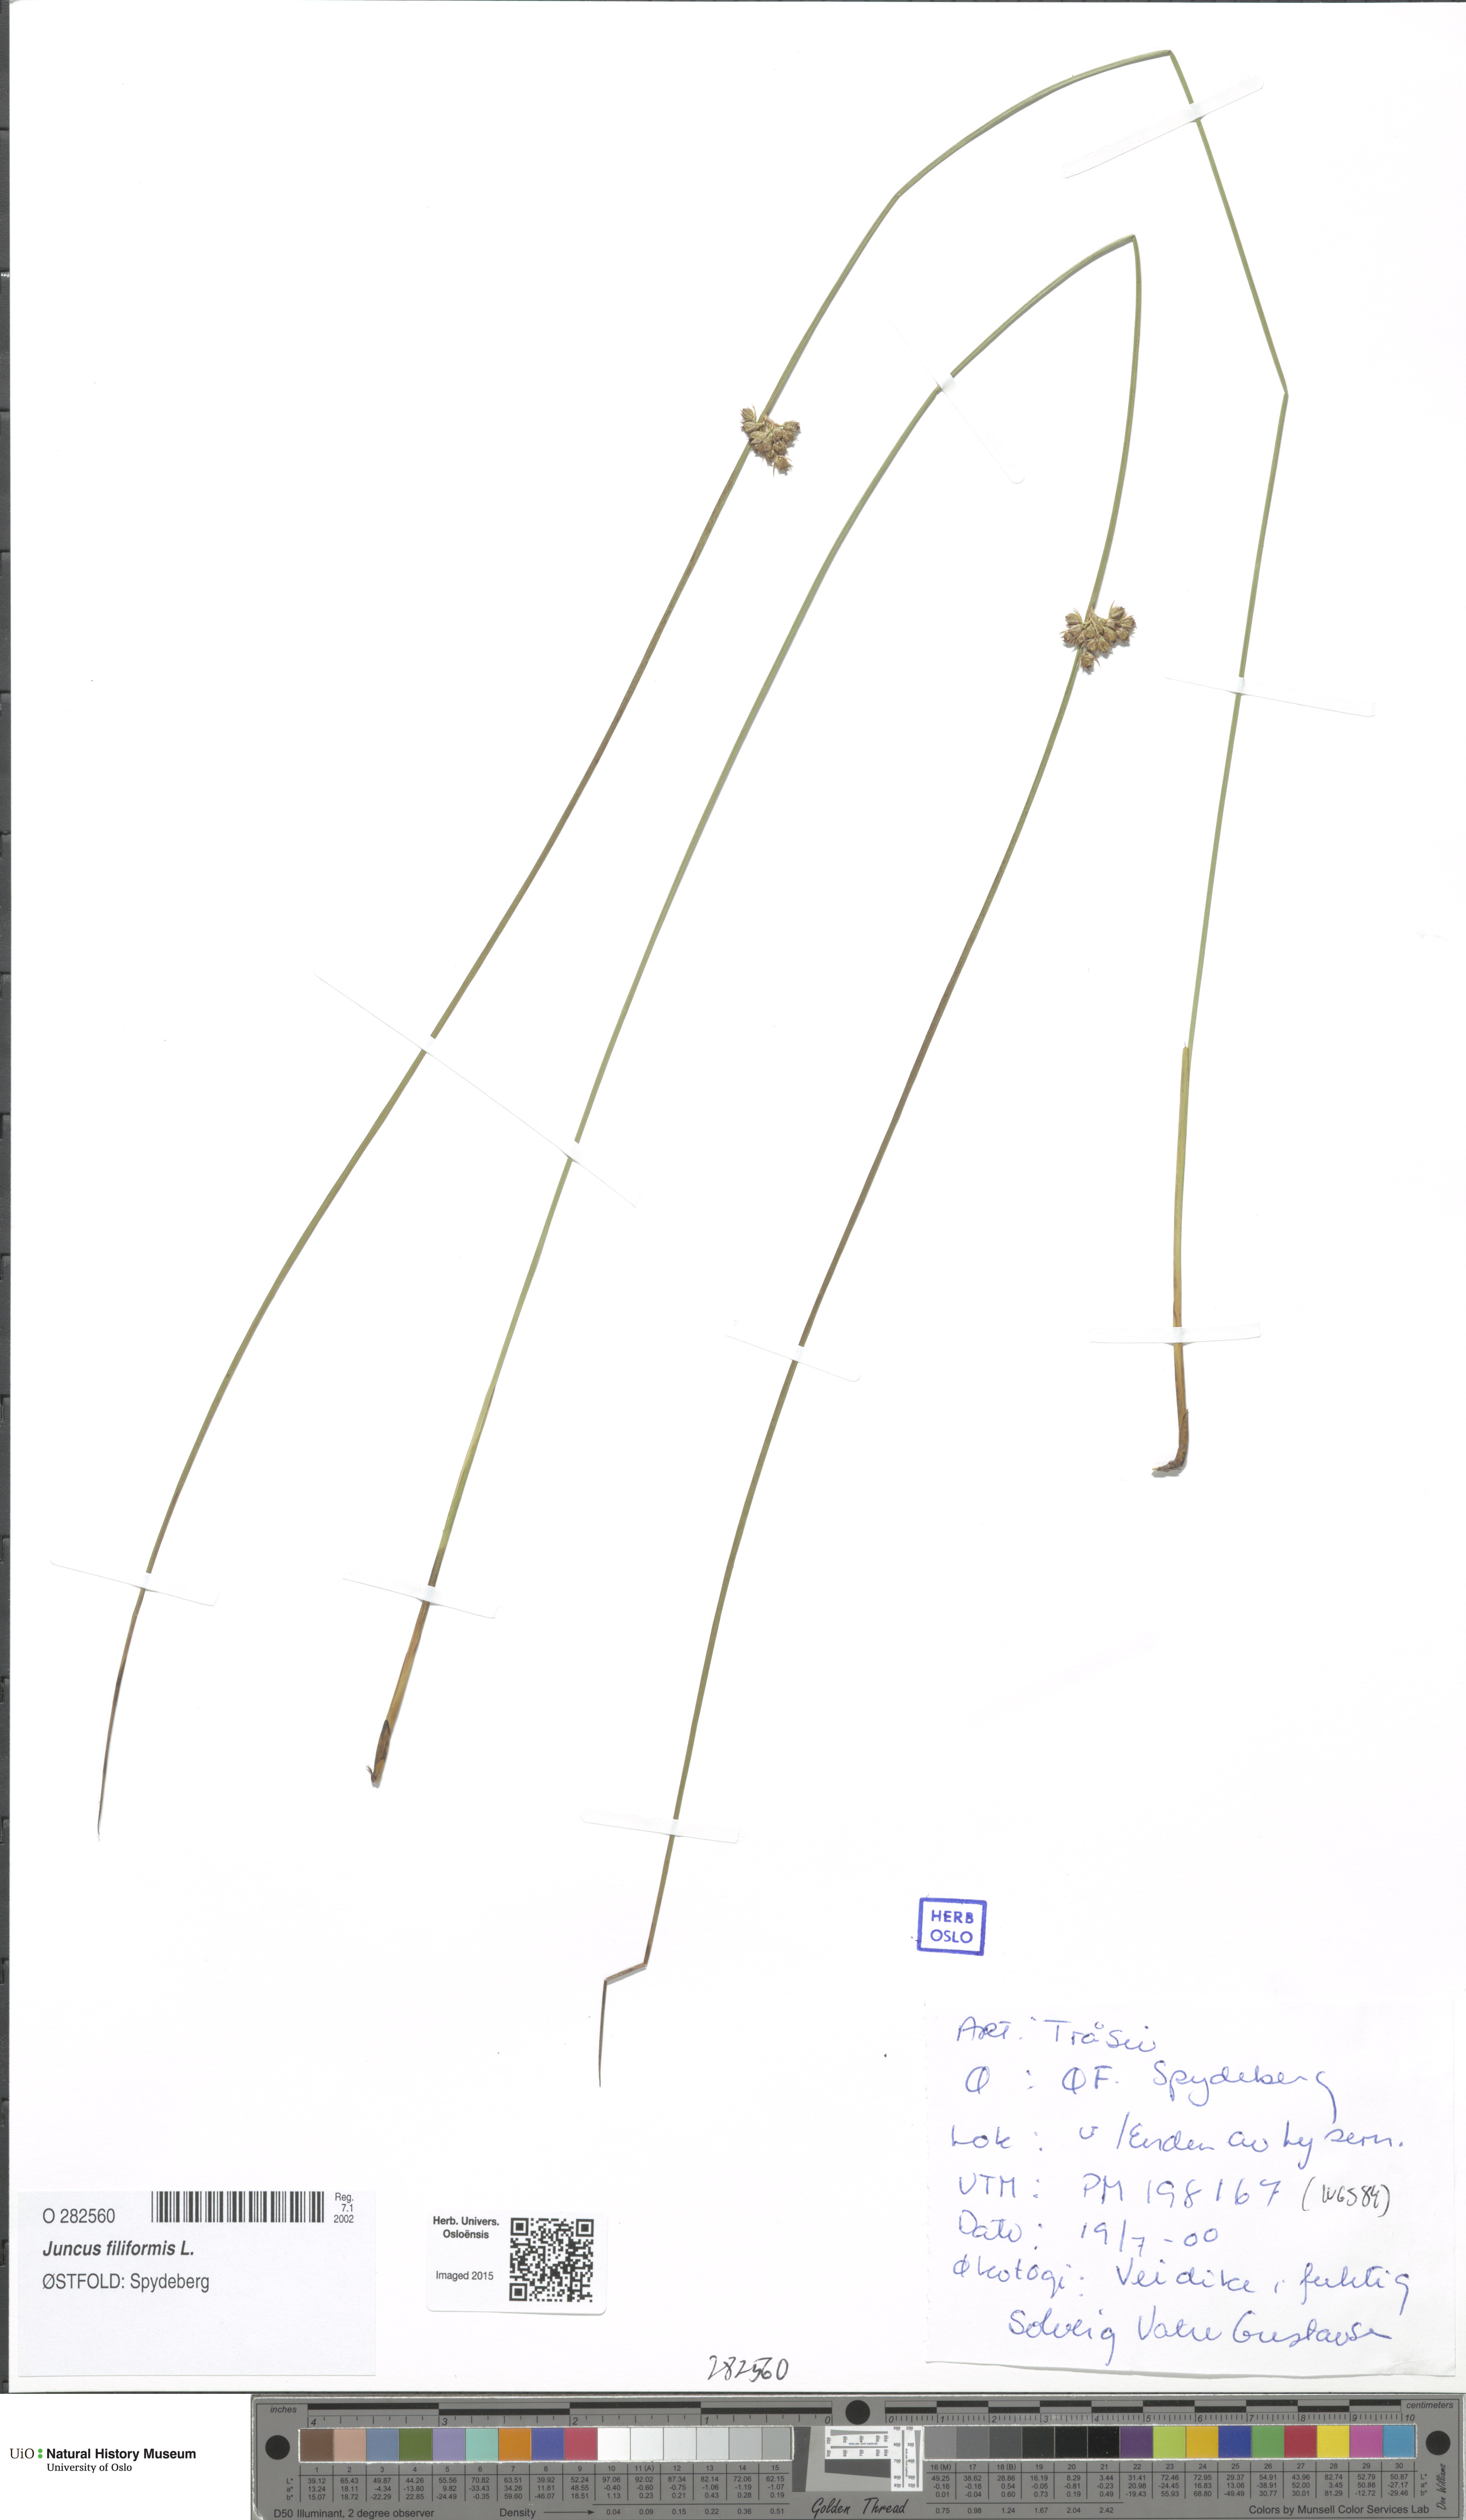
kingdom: Plantae
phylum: Tracheophyta
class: Liliopsida
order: Poales
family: Juncaceae
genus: Juncus
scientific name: Juncus filiformis
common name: Thread rush
